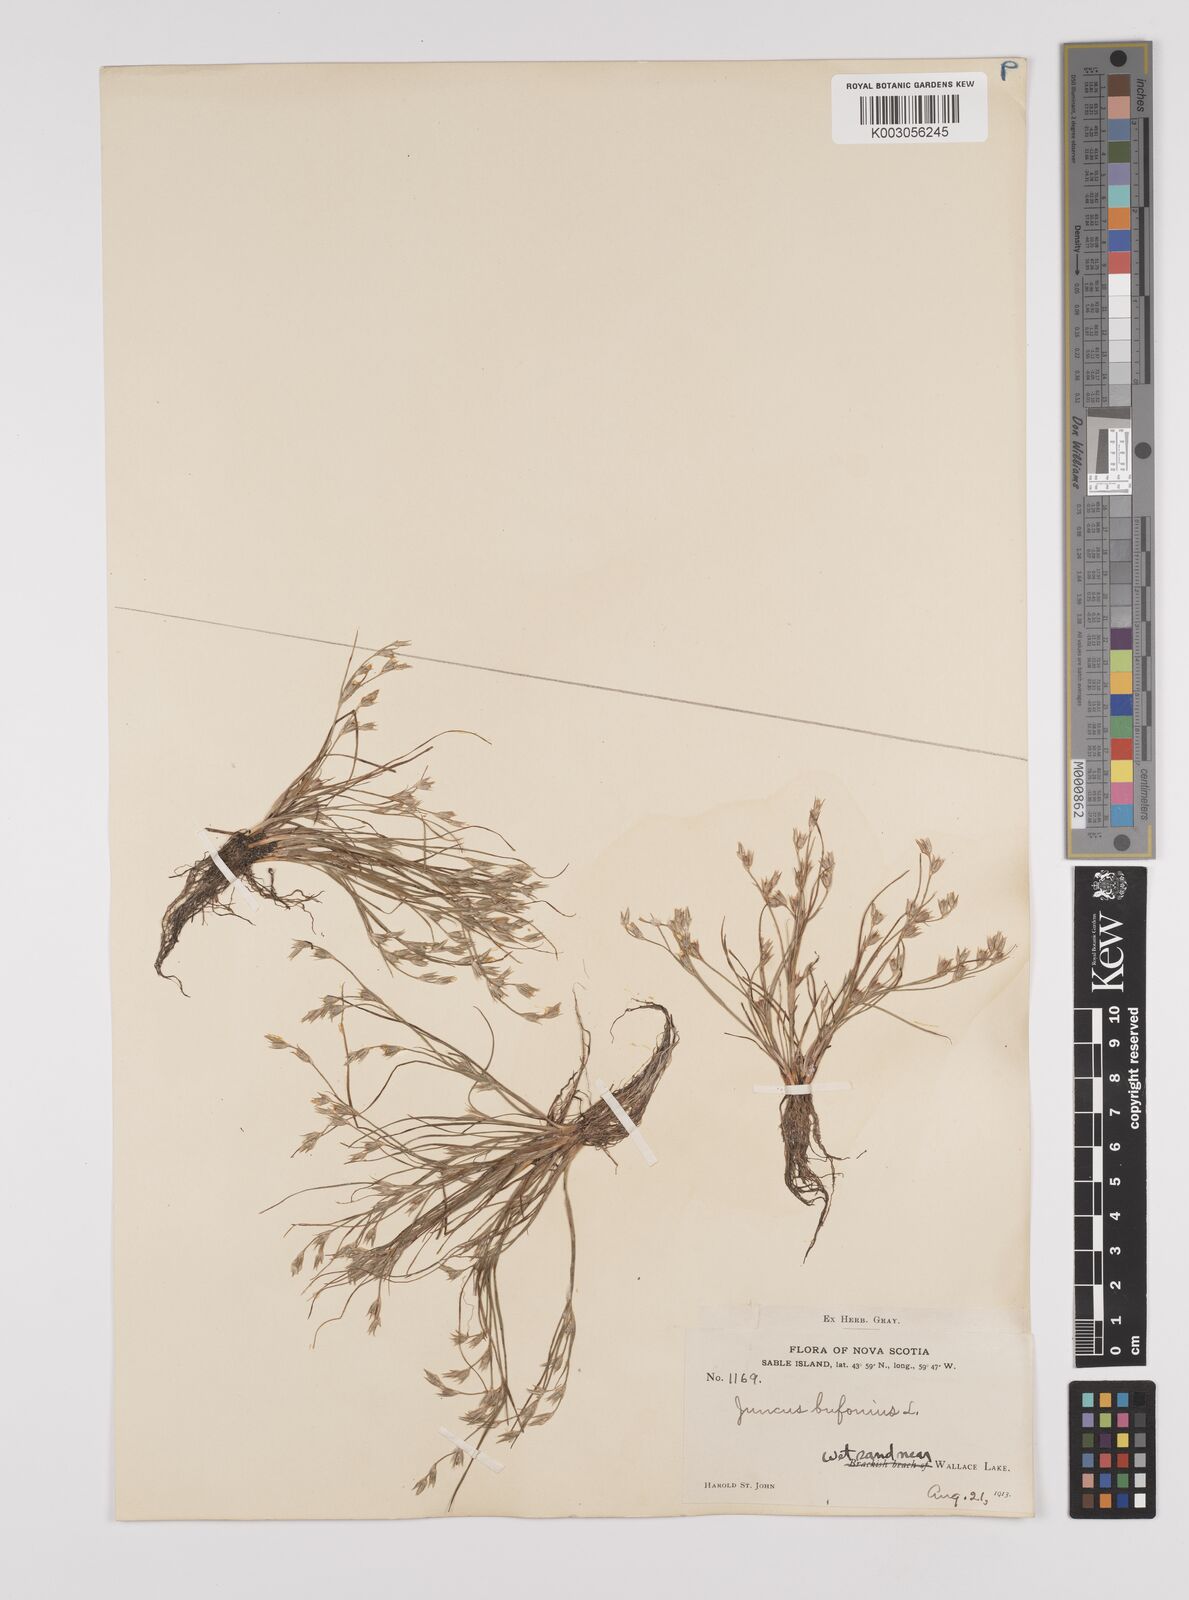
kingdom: Plantae
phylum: Tracheophyta
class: Liliopsida
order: Poales
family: Juncaceae
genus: Juncus
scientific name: Juncus bufonius
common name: Toad rush
